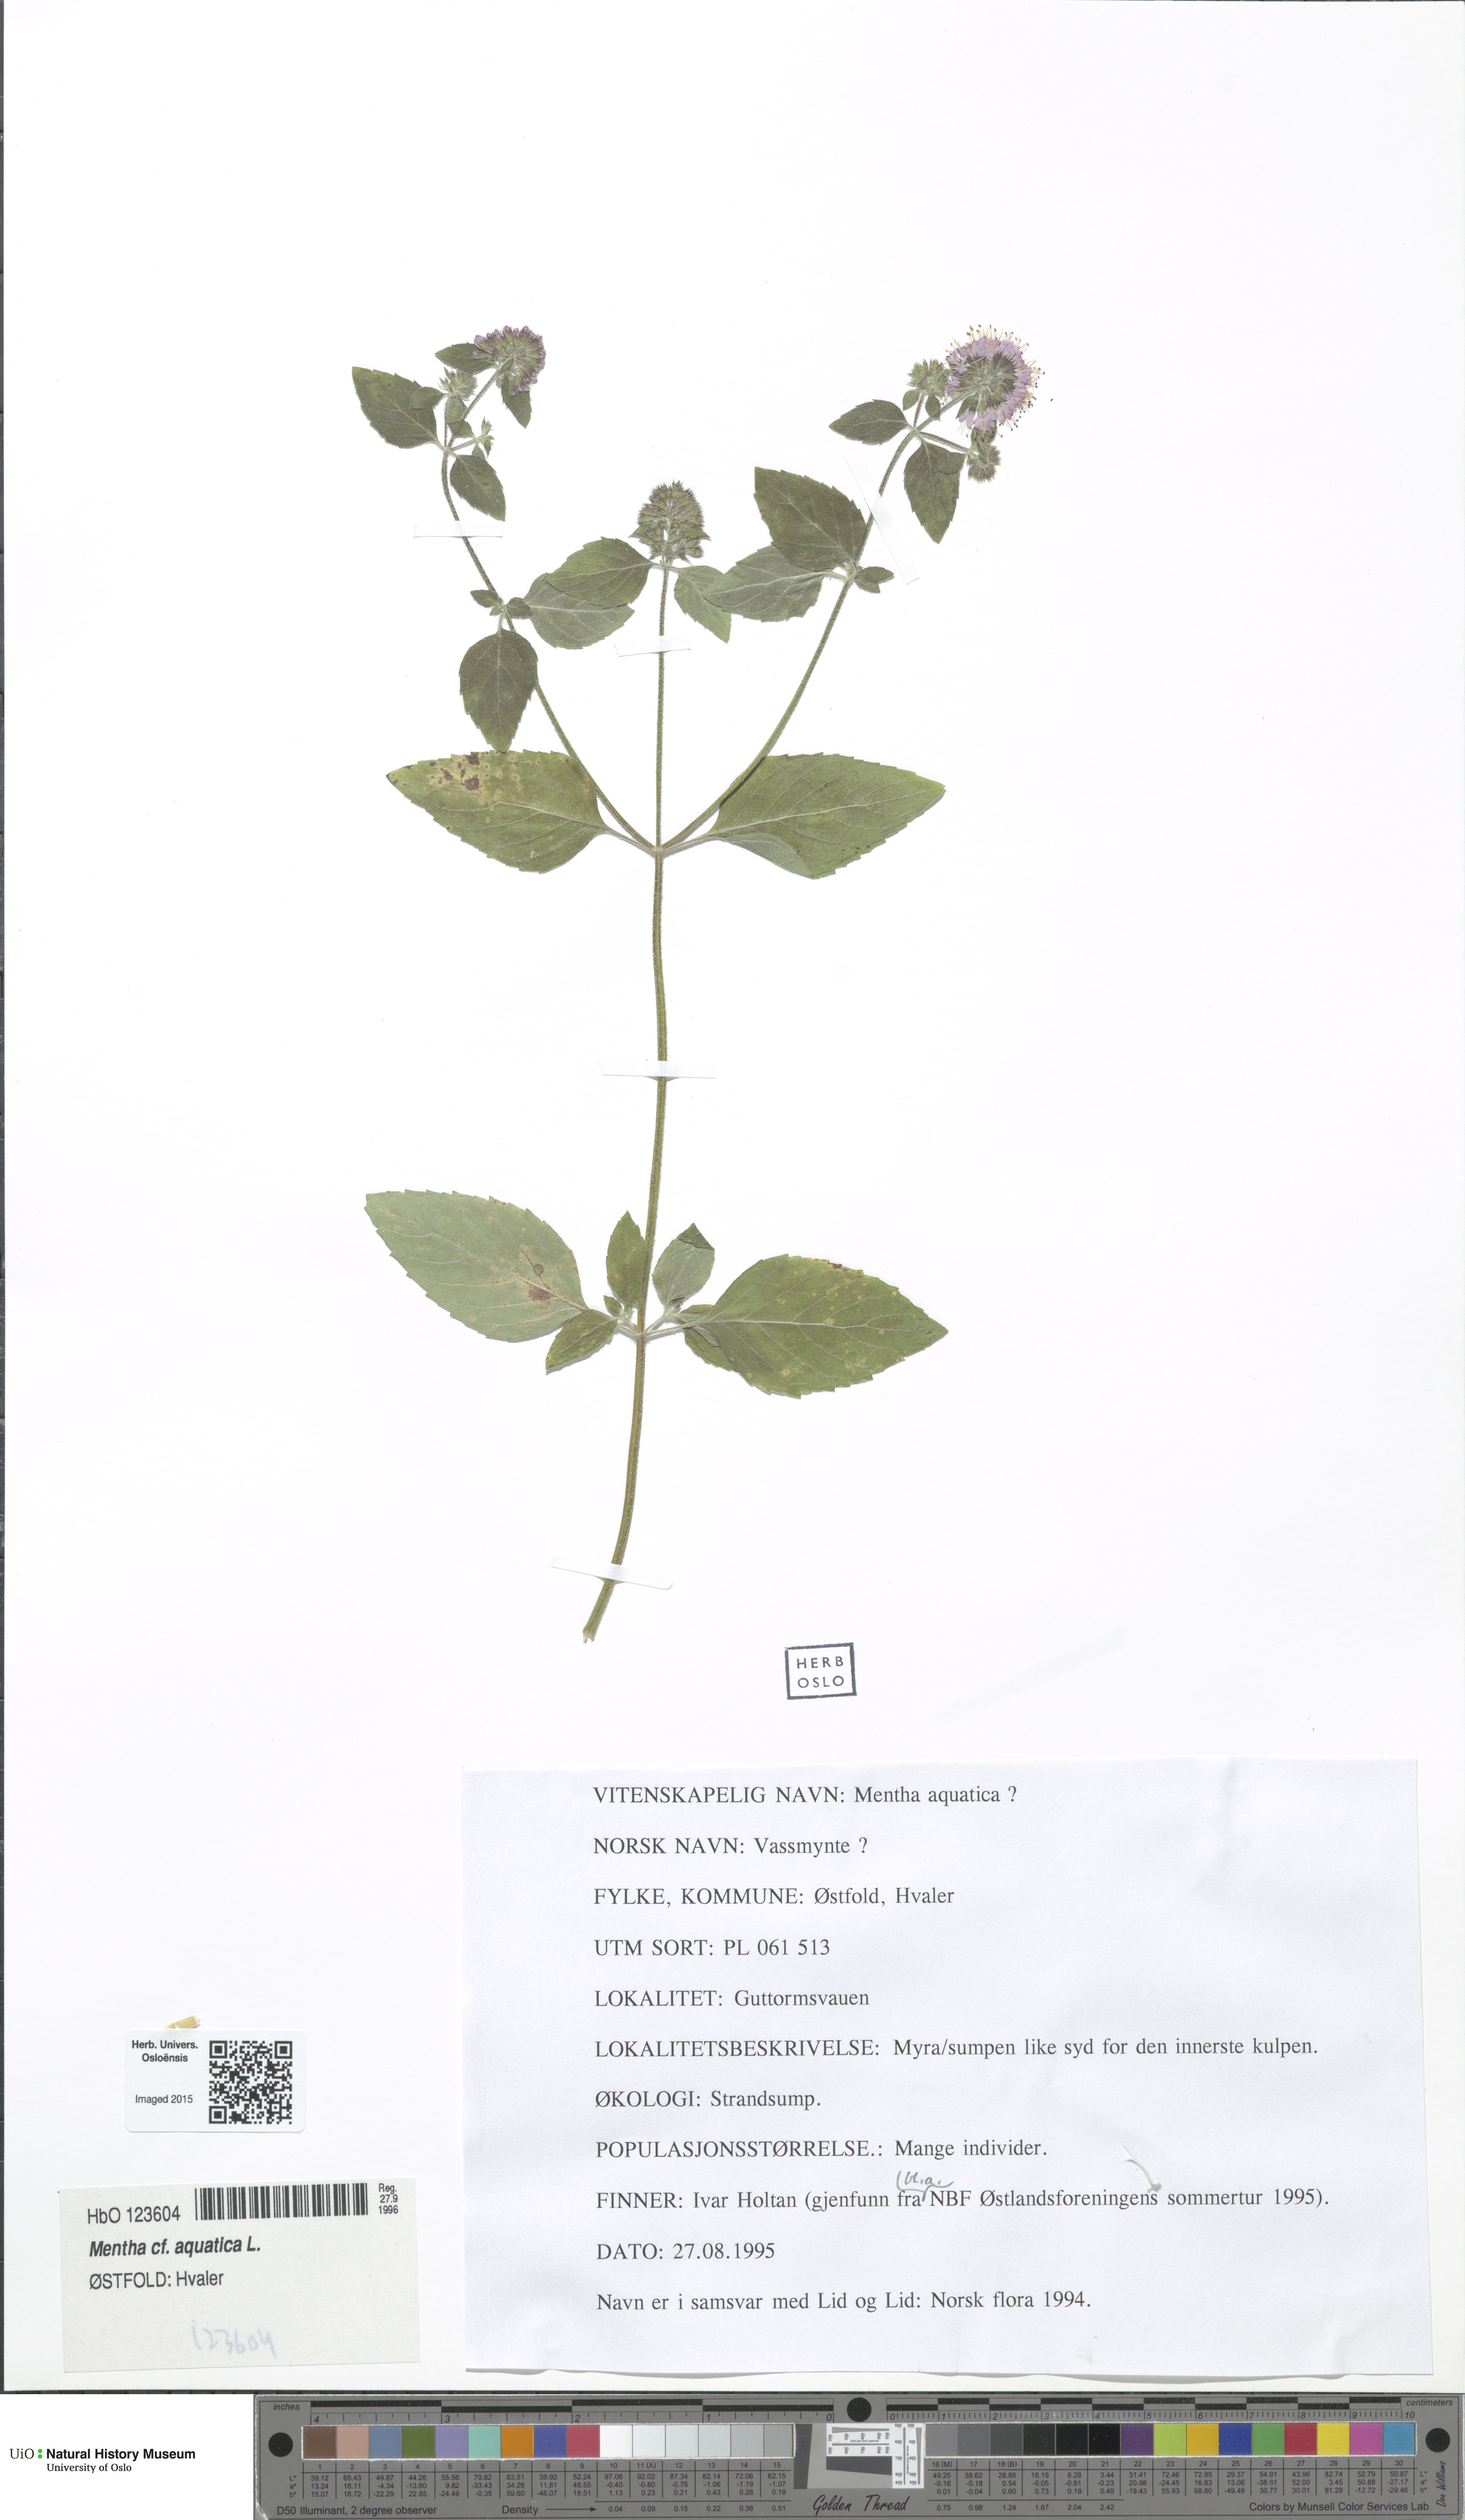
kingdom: Plantae
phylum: Tracheophyta
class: Magnoliopsida
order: Lamiales
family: Lamiaceae
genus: Mentha
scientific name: Mentha aquatica
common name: Water mint
